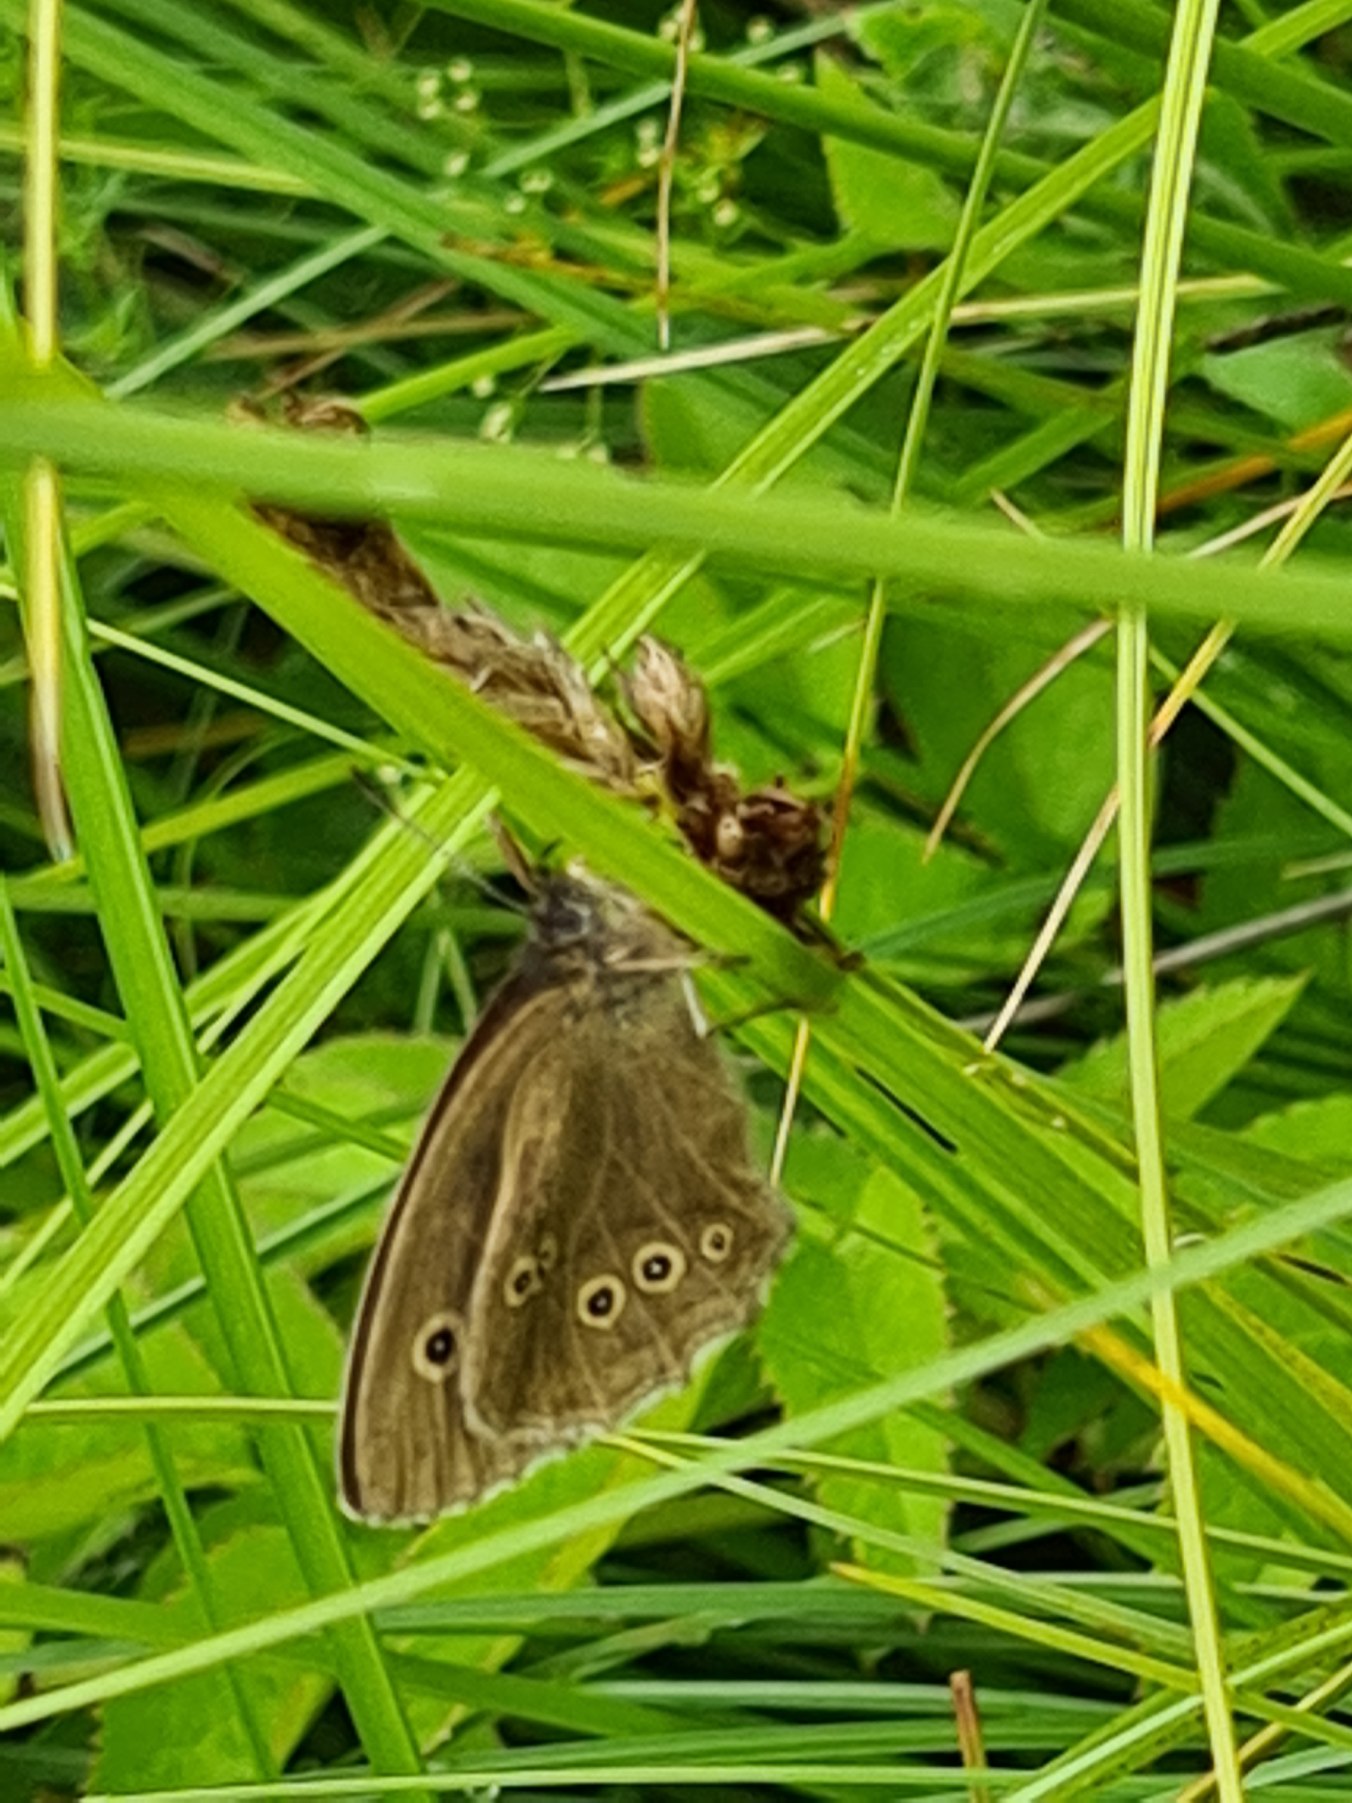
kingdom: Animalia
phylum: Arthropoda
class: Insecta
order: Lepidoptera
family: Nymphalidae
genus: Aphantopus
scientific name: Aphantopus hyperantus
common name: Engrandøje
